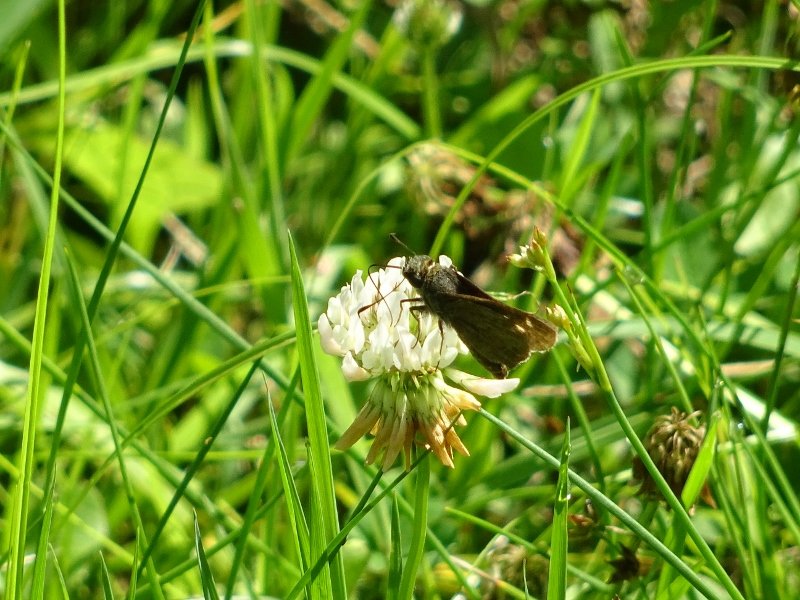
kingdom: Animalia
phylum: Arthropoda
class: Insecta
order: Lepidoptera
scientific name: Lepidoptera
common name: Butterflies
